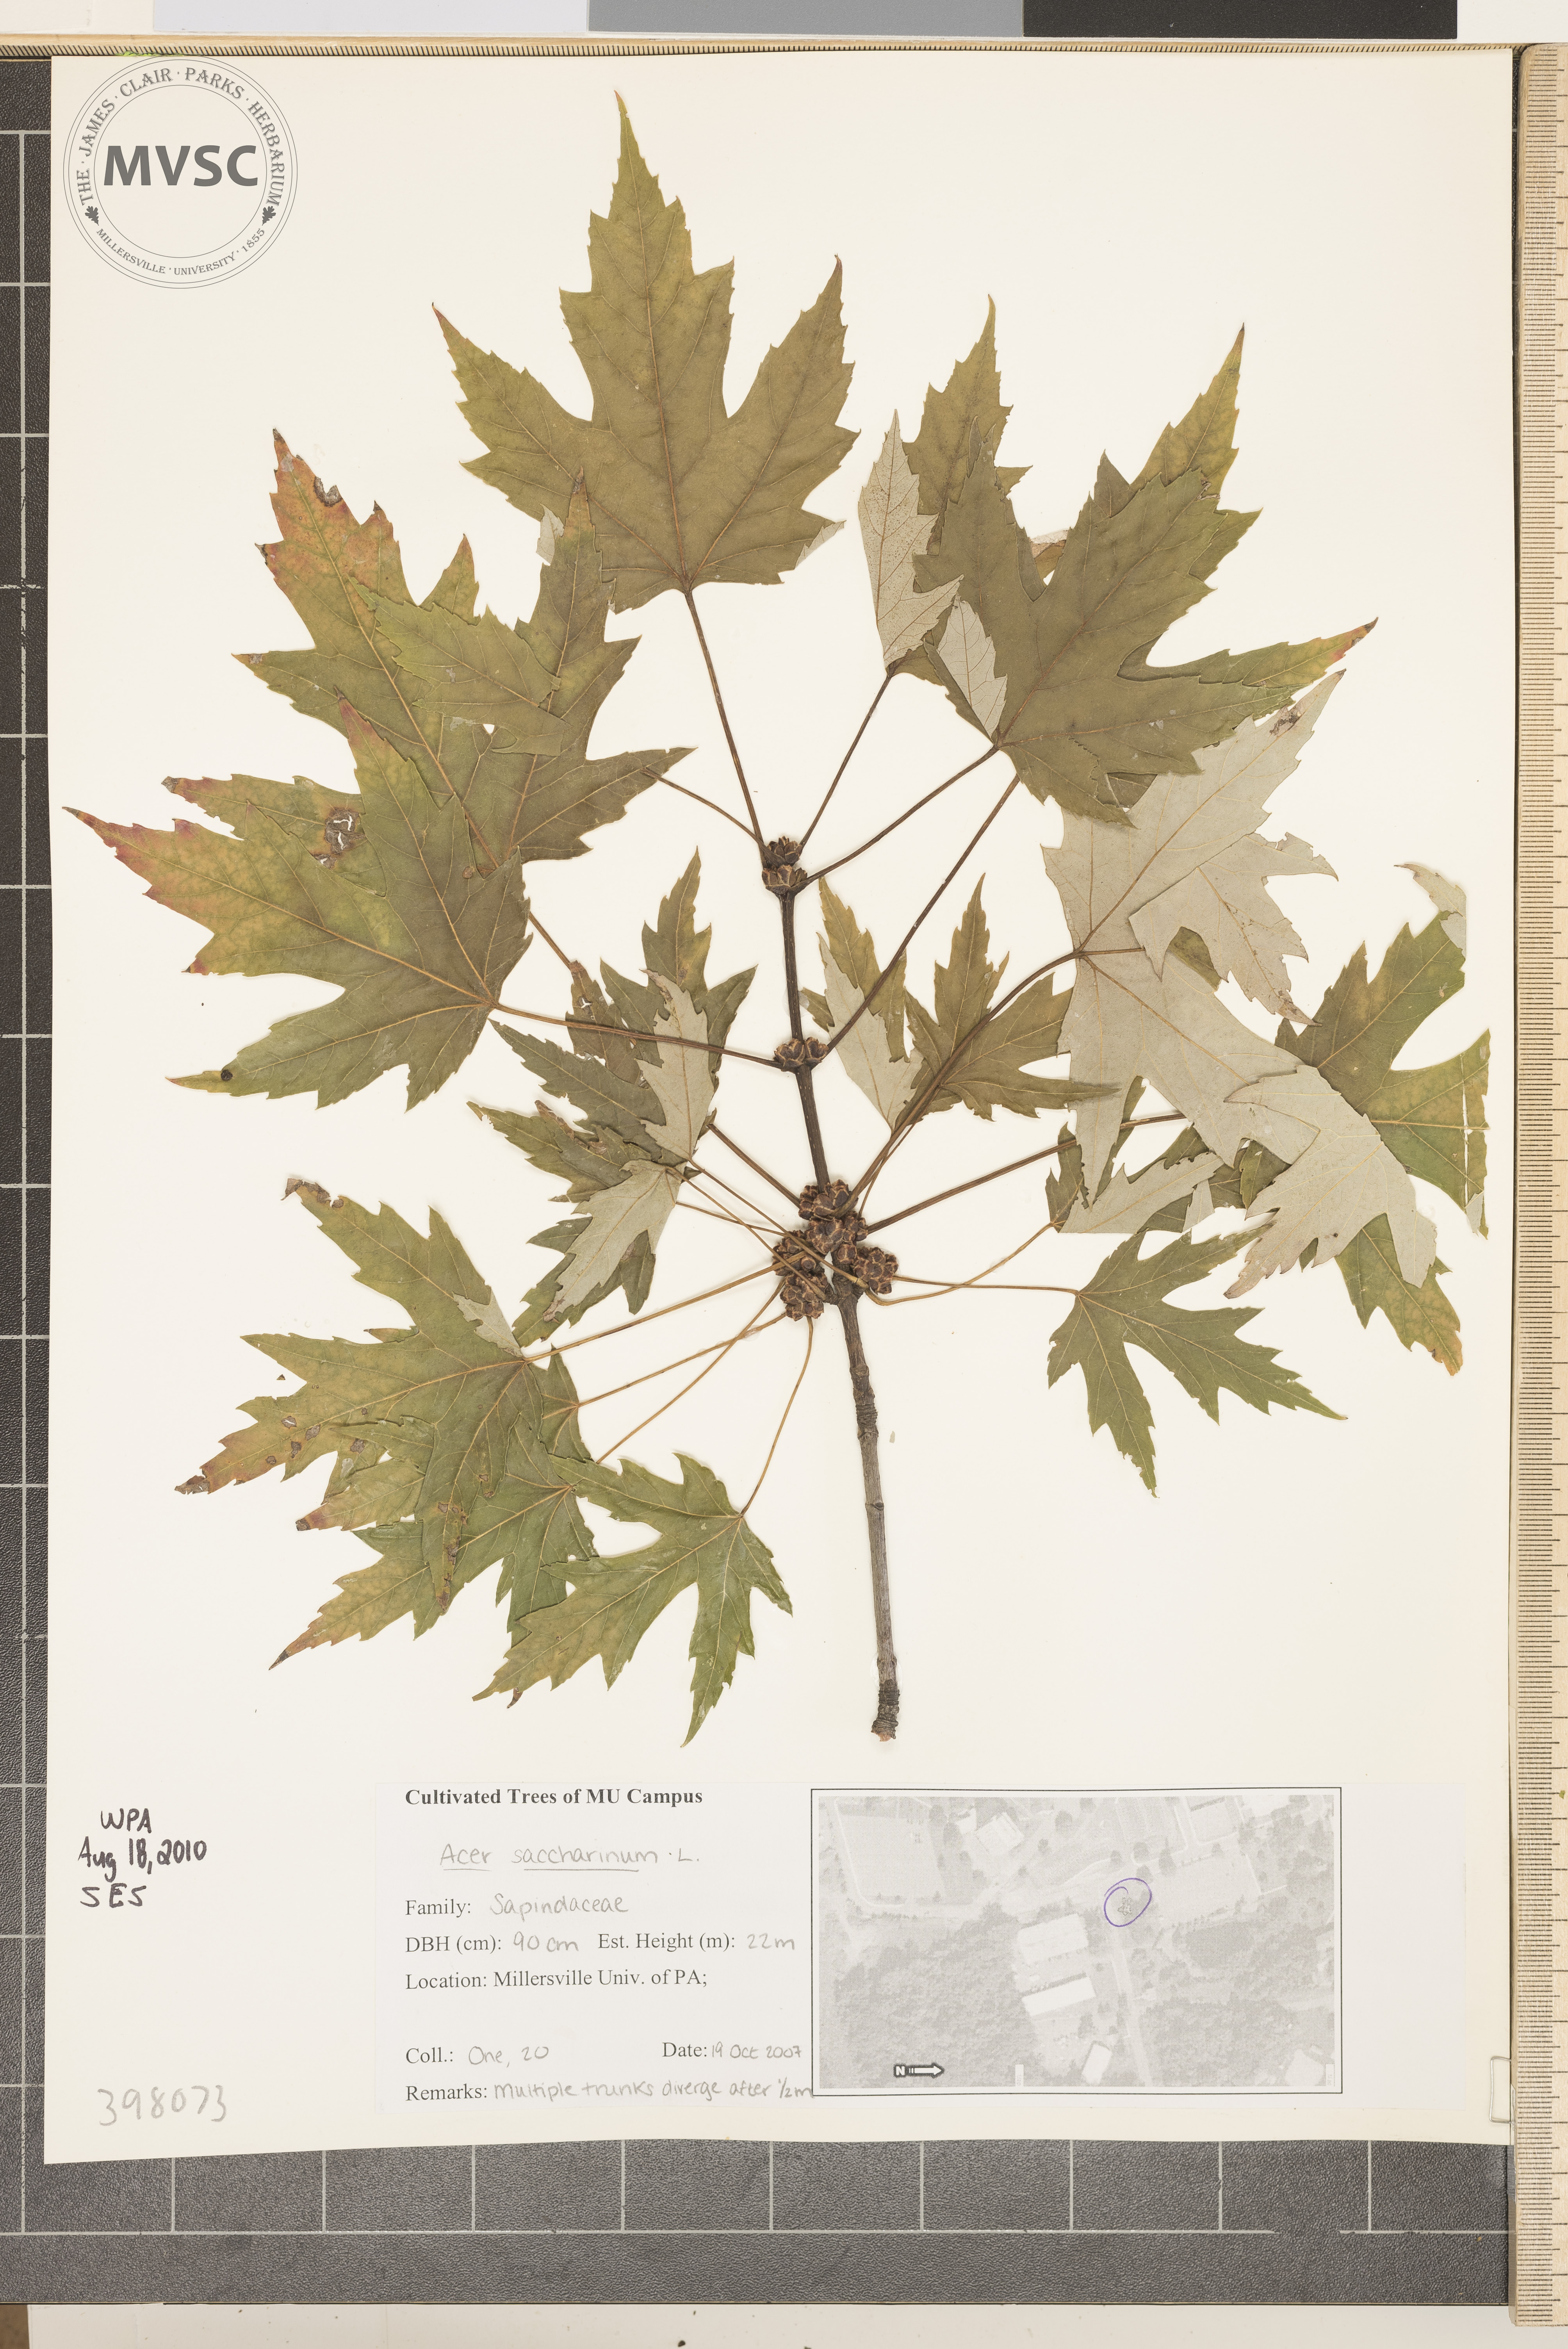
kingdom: Plantae
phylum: Tracheophyta
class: Magnoliopsida
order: Sapindales
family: Sapindaceae
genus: Acer
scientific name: Acer saccharinum
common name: Silver maple
